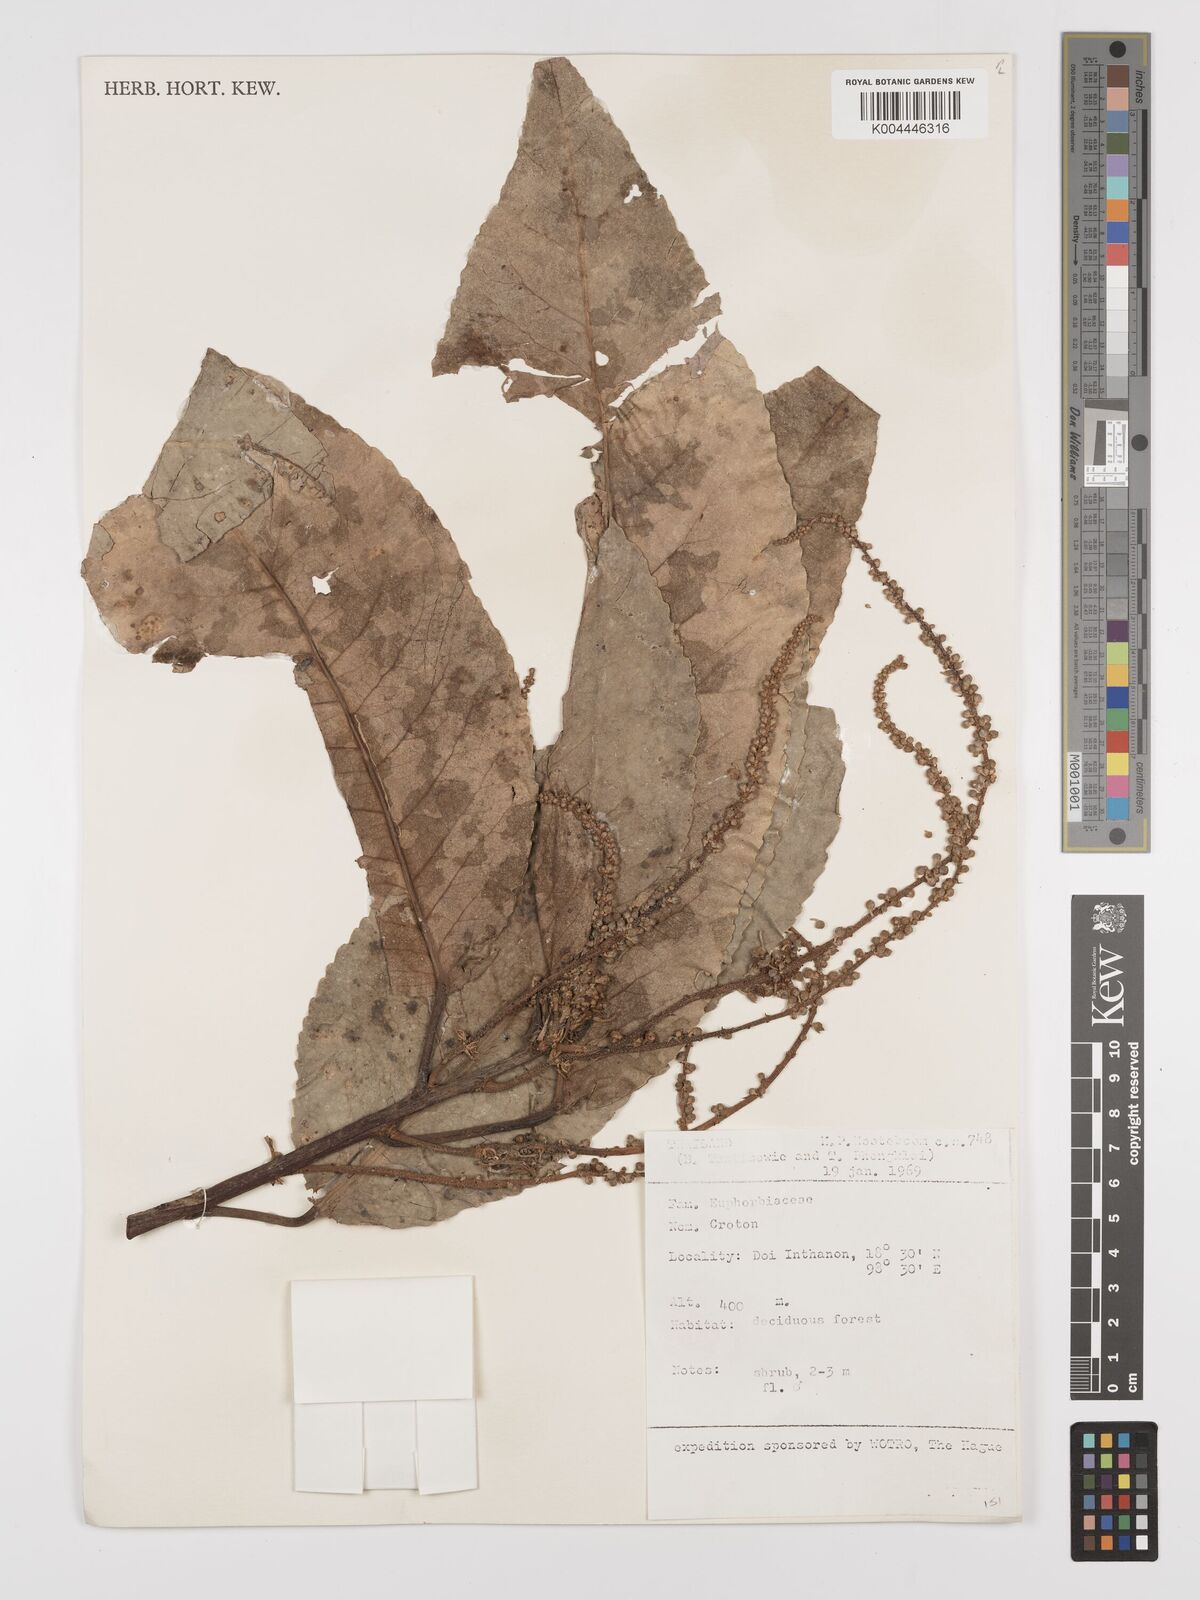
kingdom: Plantae
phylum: Tracheophyta
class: Magnoliopsida
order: Malpighiales
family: Euphorbiaceae
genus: Croton
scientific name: Croton
